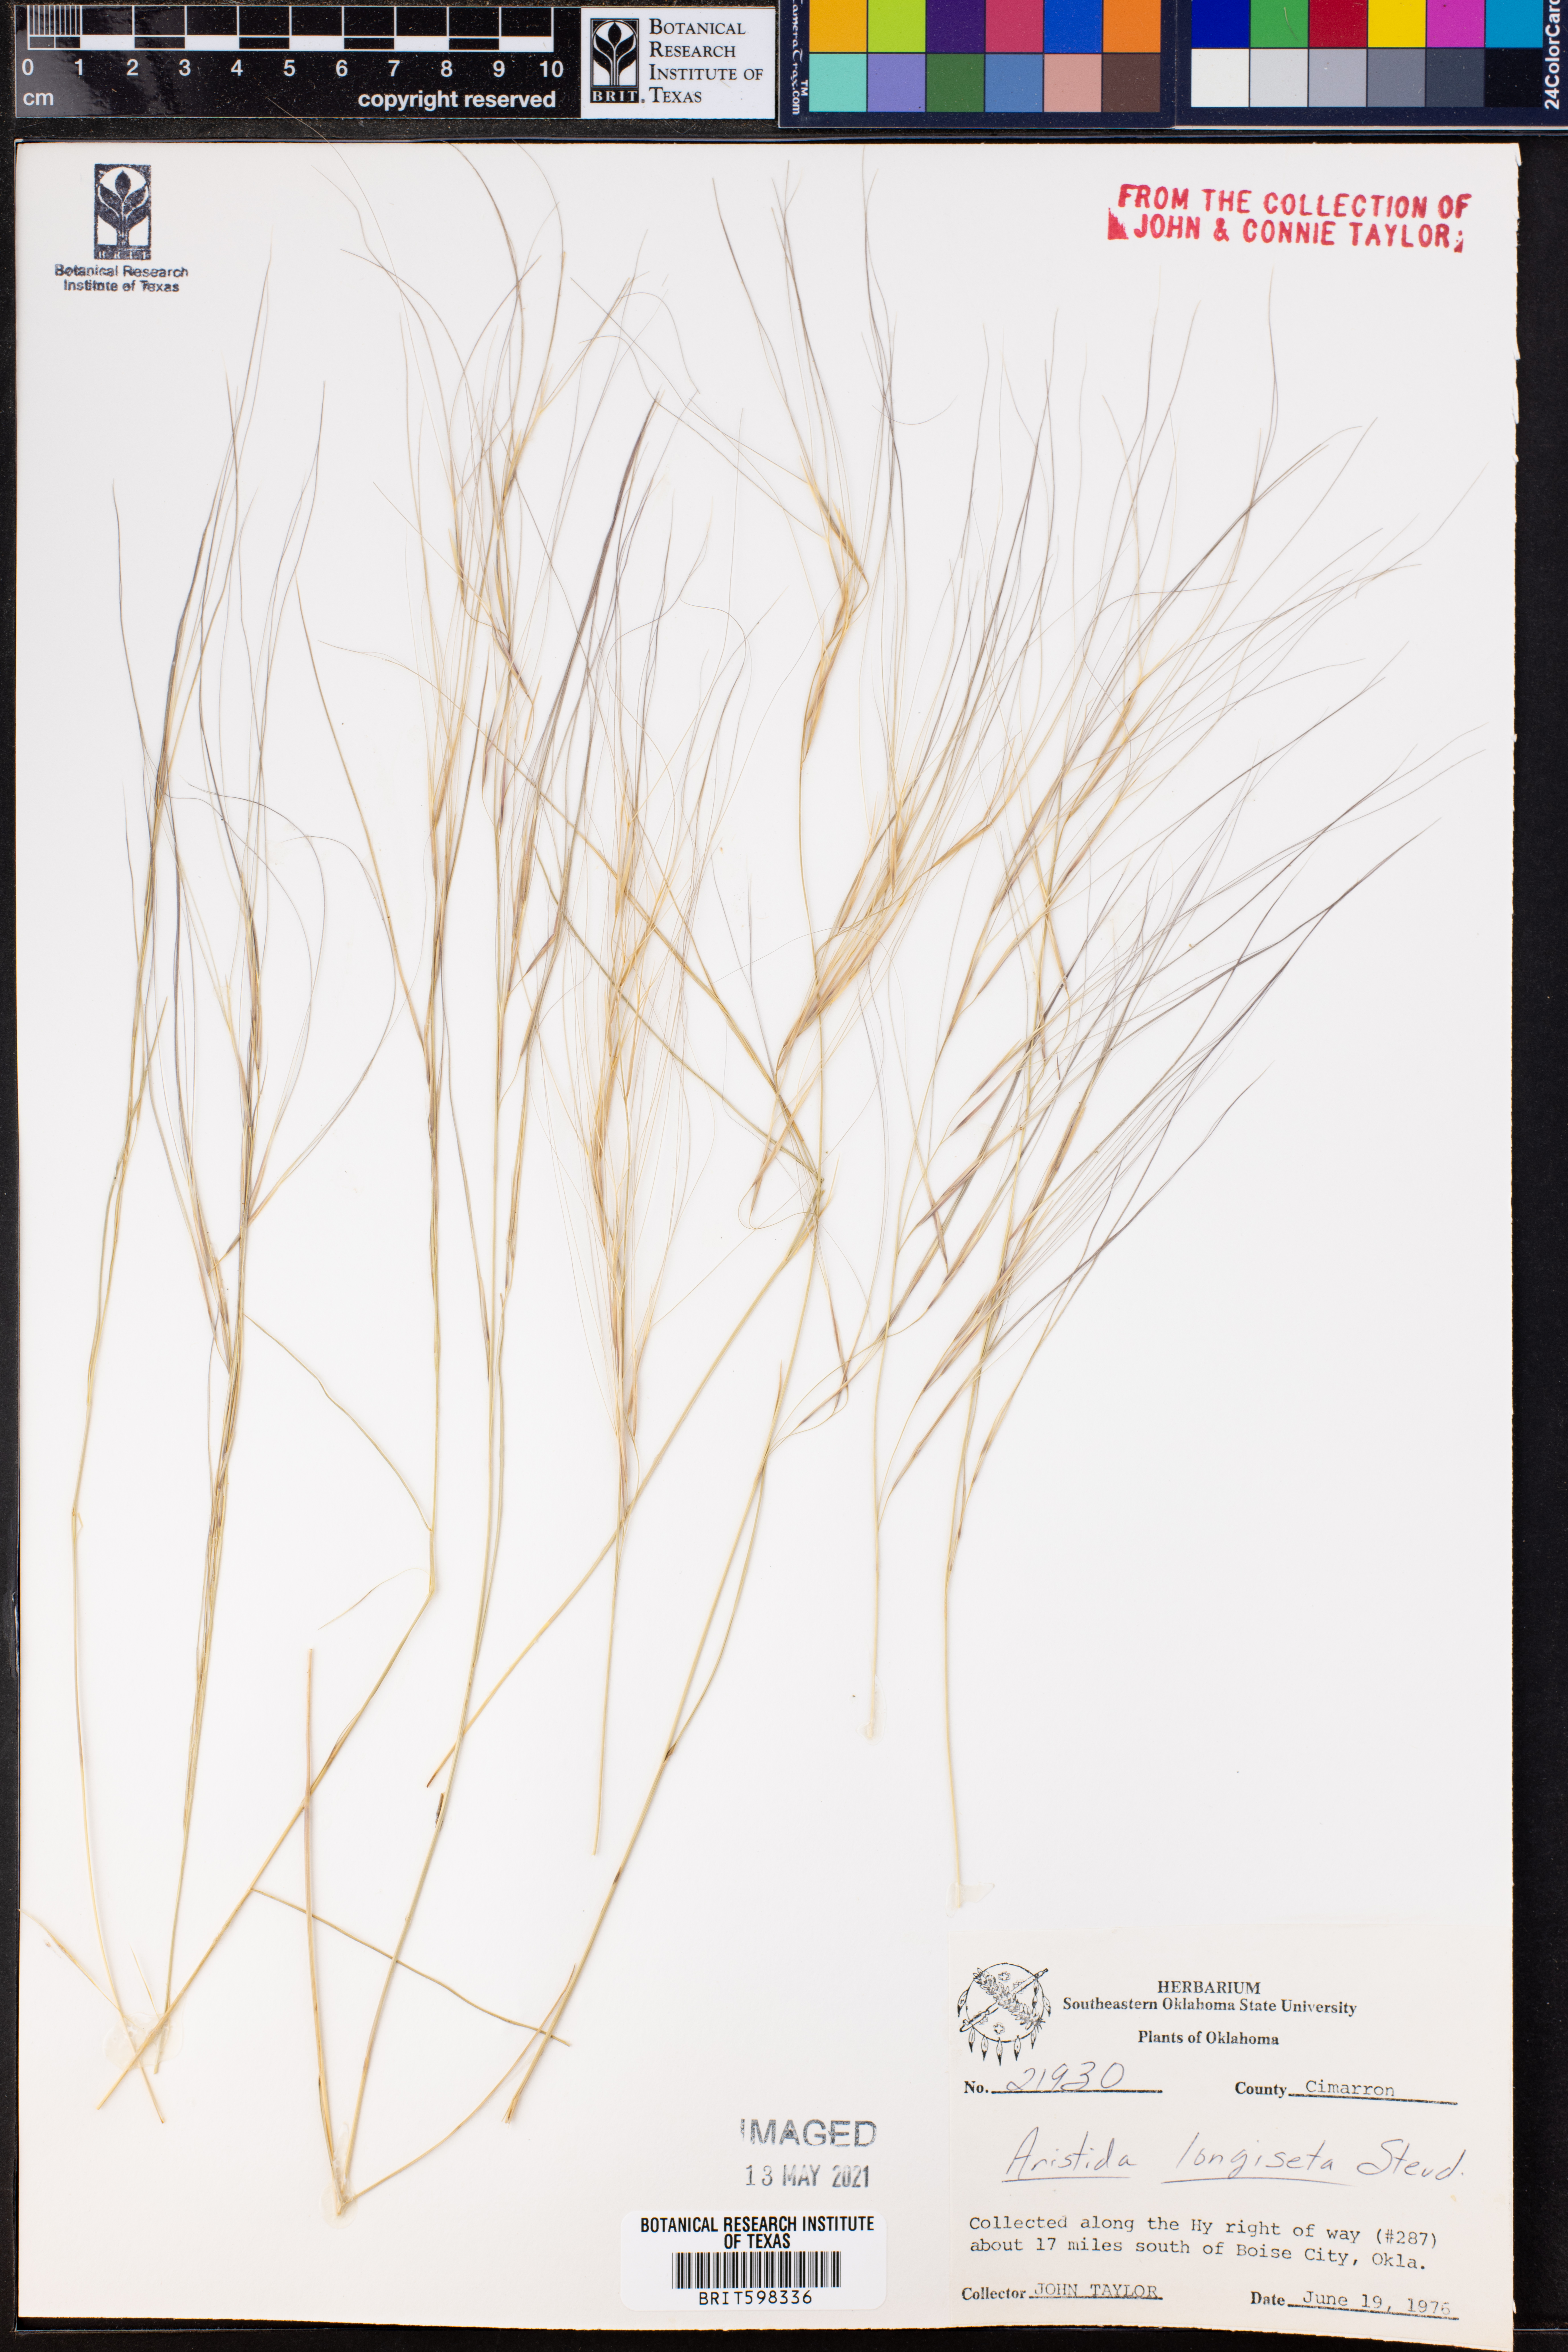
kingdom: Plantae
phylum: Tracheophyta
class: Liliopsida
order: Poales
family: Poaceae
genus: Aristida
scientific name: Aristida longespica
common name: Long-spiked triple-awned grass
